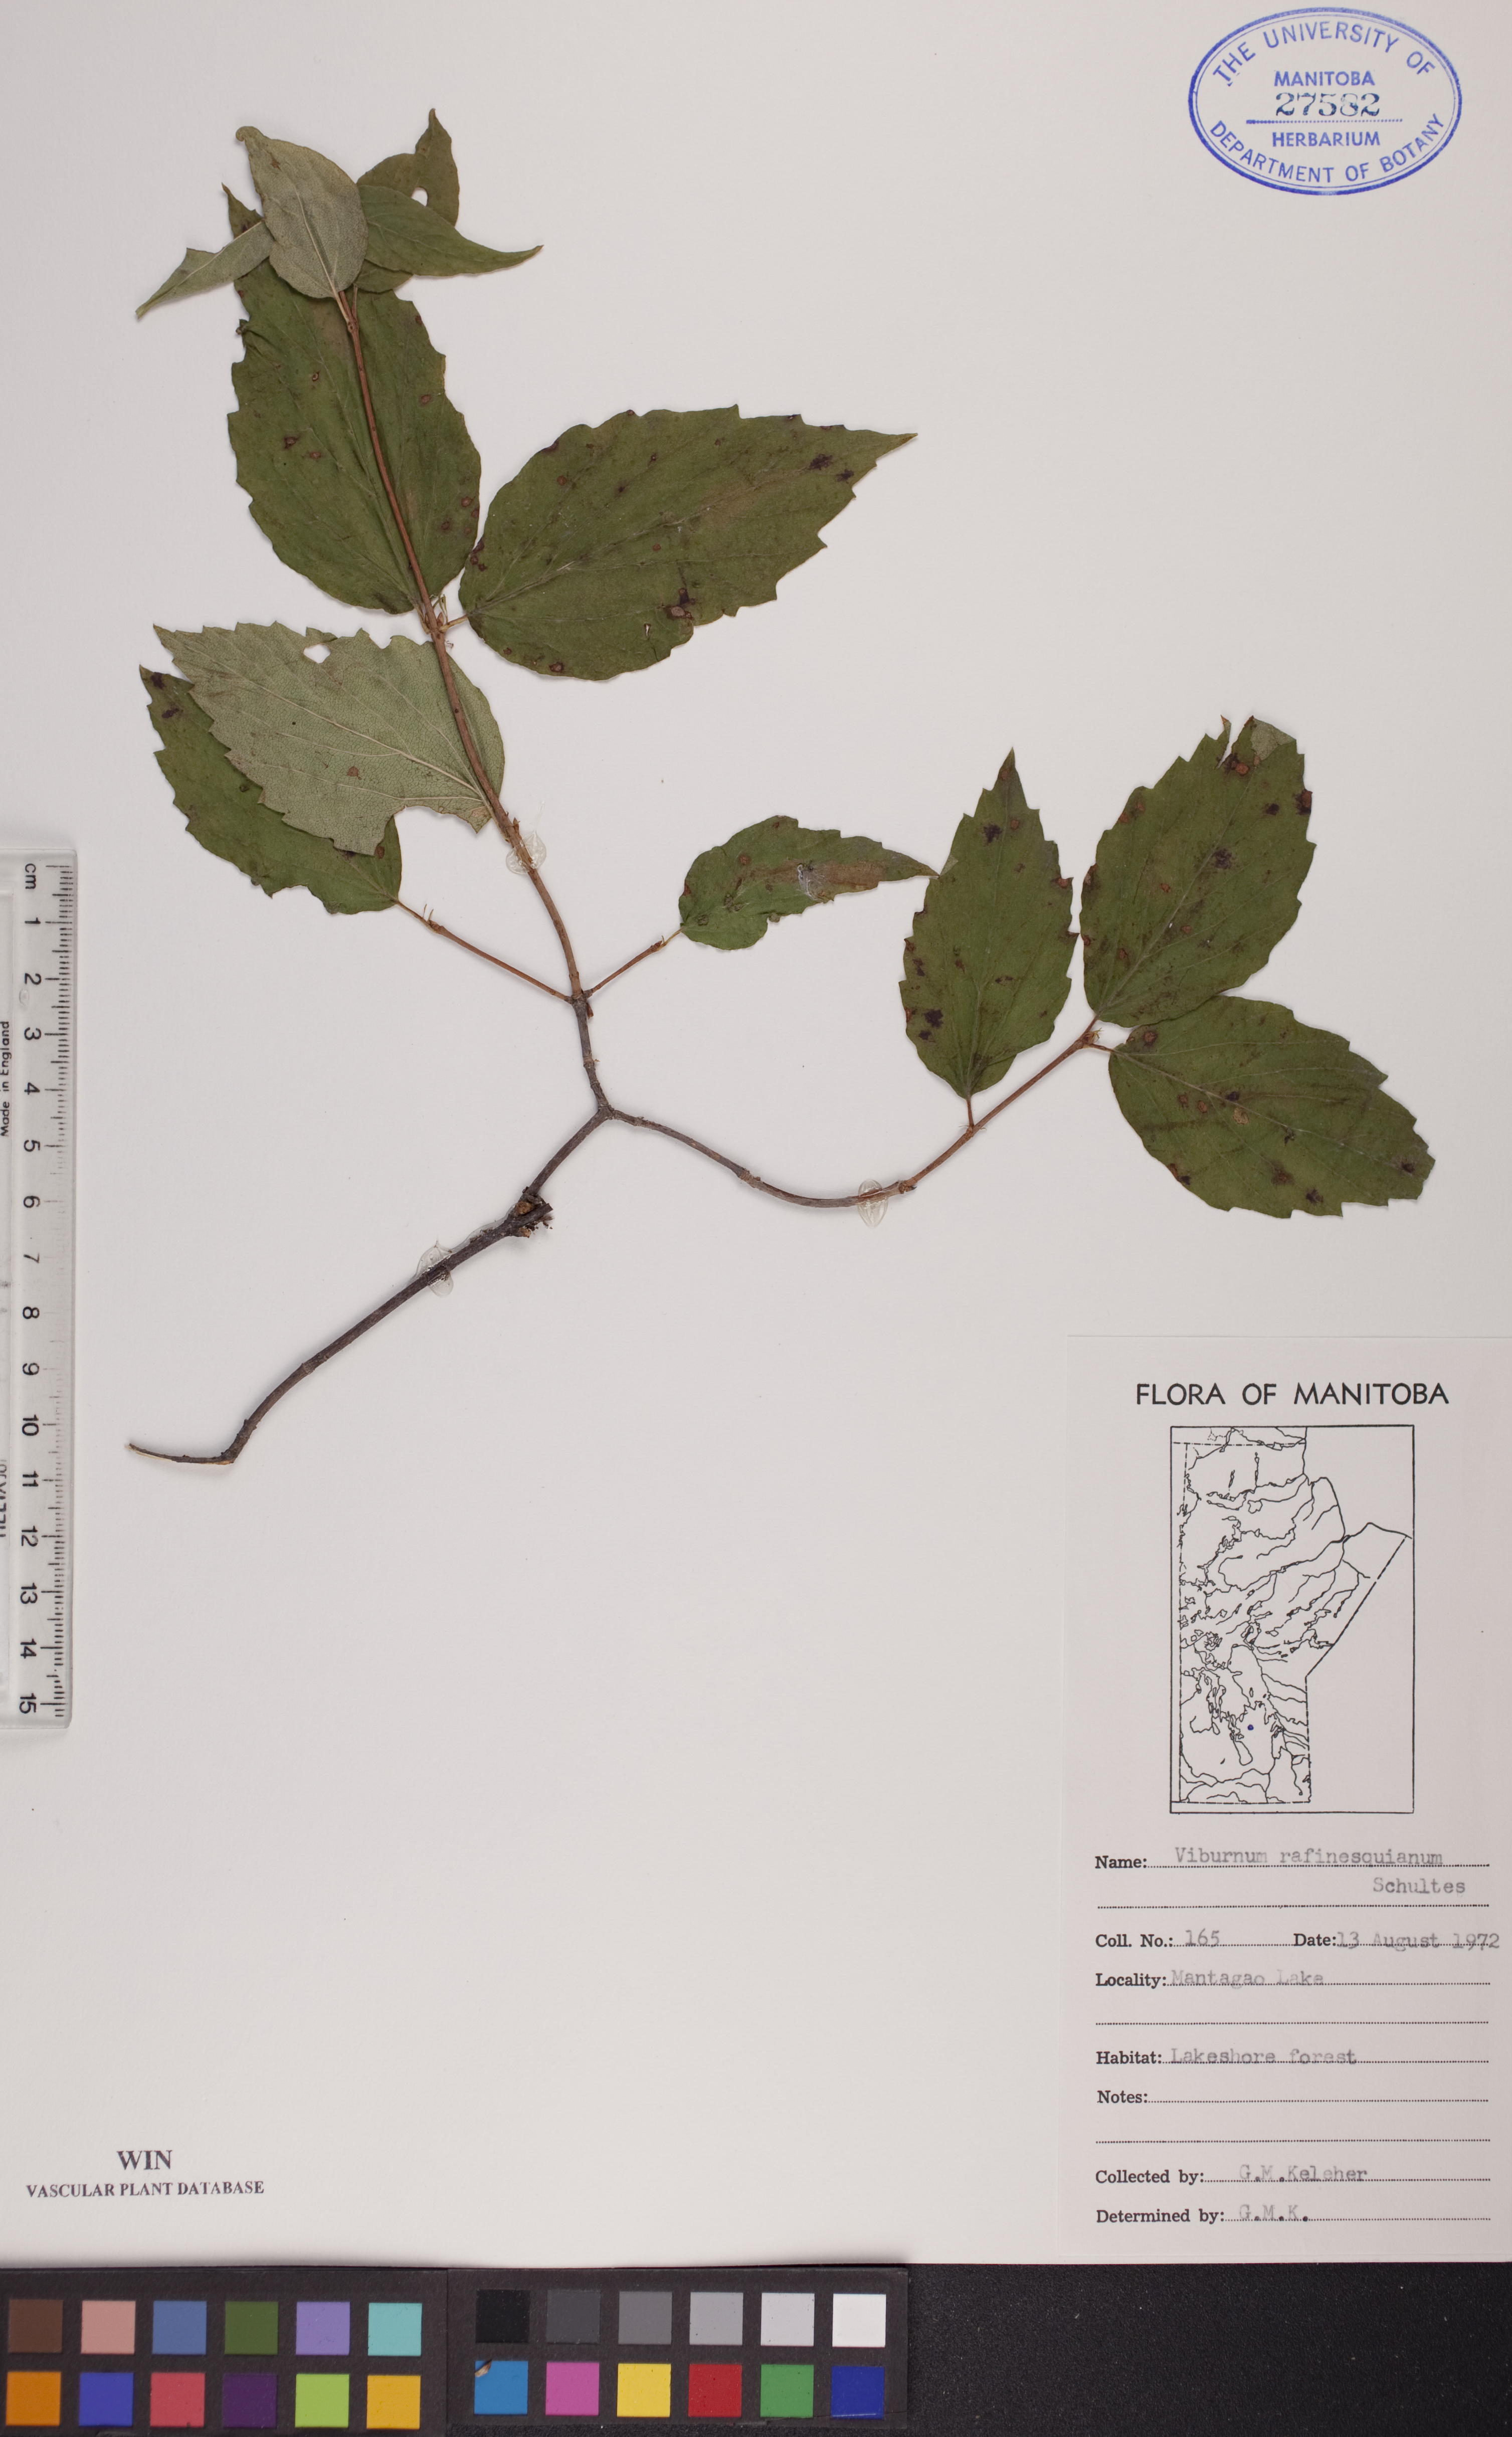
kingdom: Plantae
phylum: Tracheophyta
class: Magnoliopsida
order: Dipsacales
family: Viburnaceae
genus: Viburnum
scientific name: Viburnum rafinesquianum
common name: Downy arrow-wood
